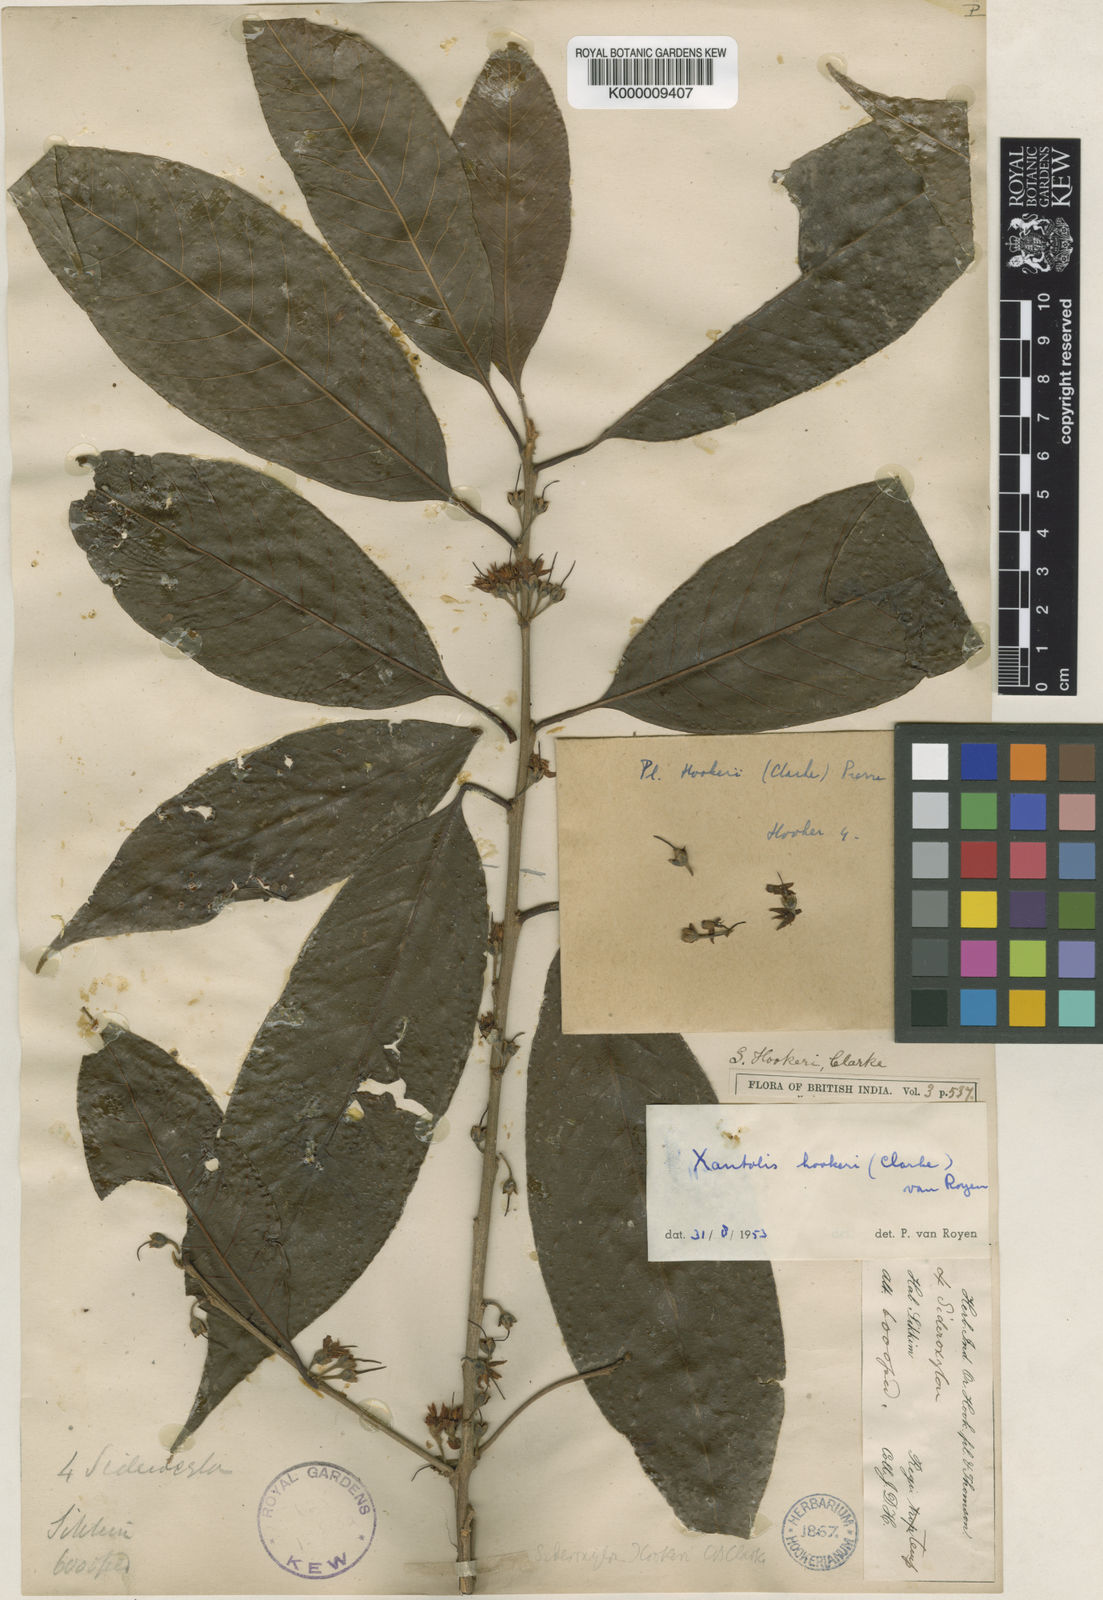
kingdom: Plantae
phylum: Tracheophyta
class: Magnoliopsida
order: Ericales
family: Sapotaceae
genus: Xantolis
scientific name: Xantolis hookeri
